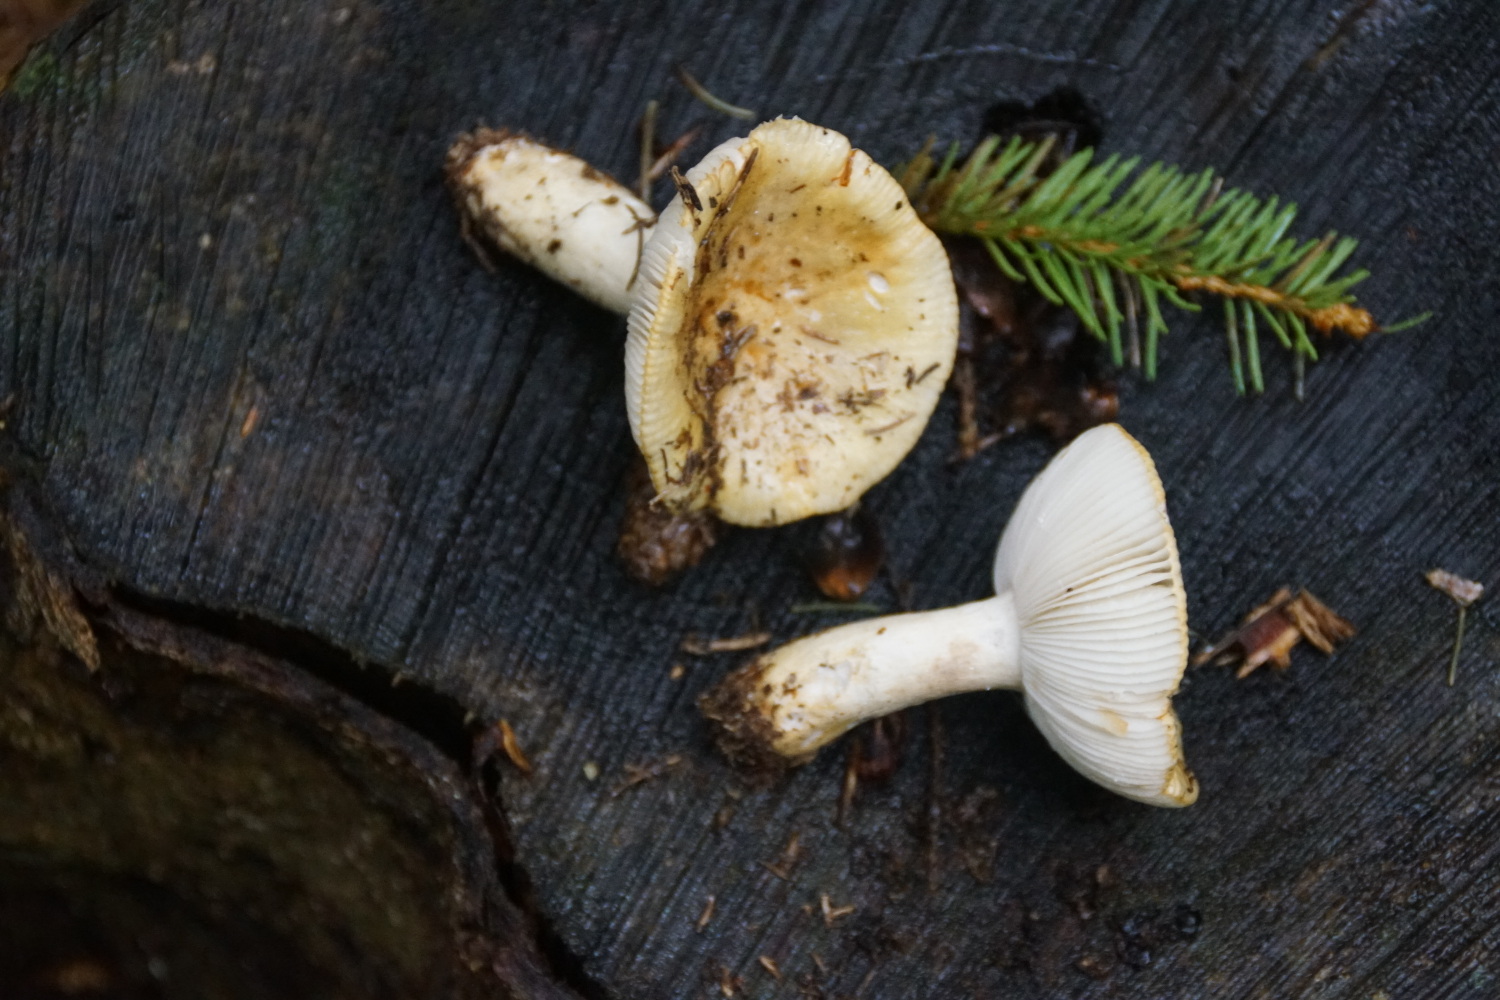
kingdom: Fungi
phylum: Basidiomycota
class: Agaricomycetes
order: Russulales
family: Russulaceae
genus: Russula
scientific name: Russula ochroleuca
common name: okkergul skørhat
